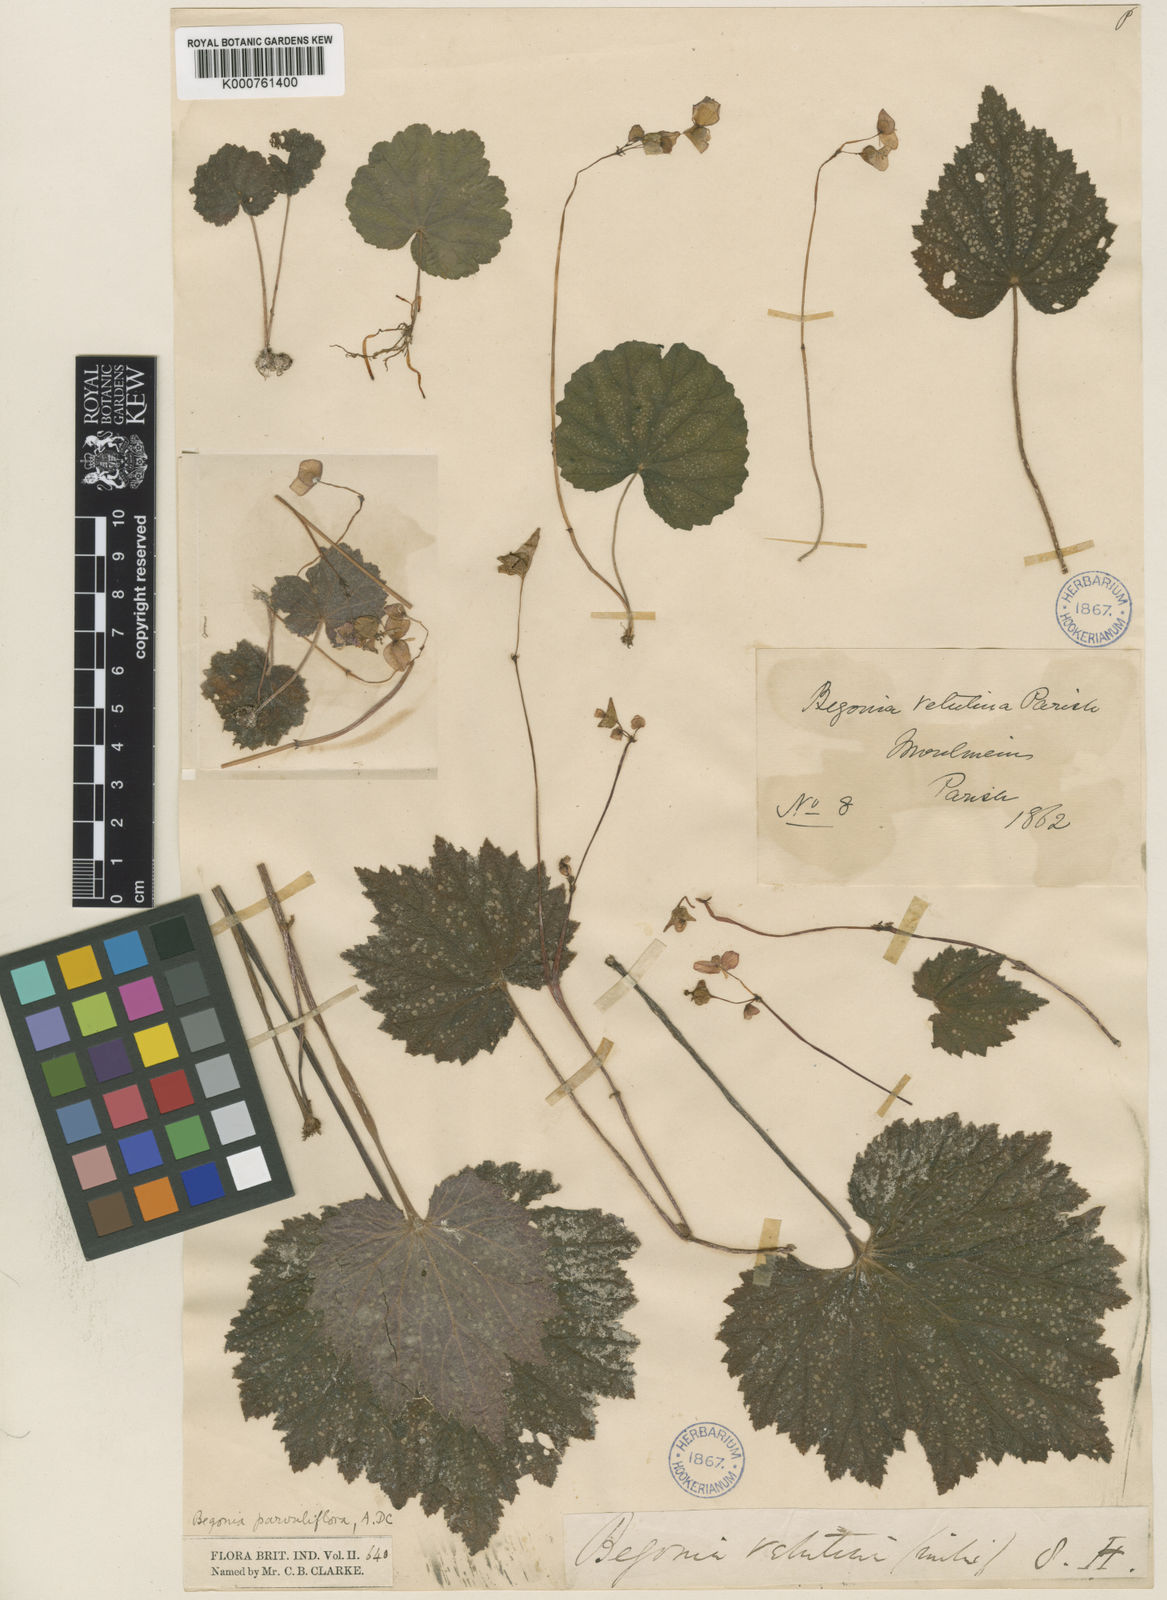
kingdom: Plantae
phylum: Tracheophyta
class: Magnoliopsida
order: Cucurbitales
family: Begoniaceae
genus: Begonia
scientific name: Begonia parvuliflora
